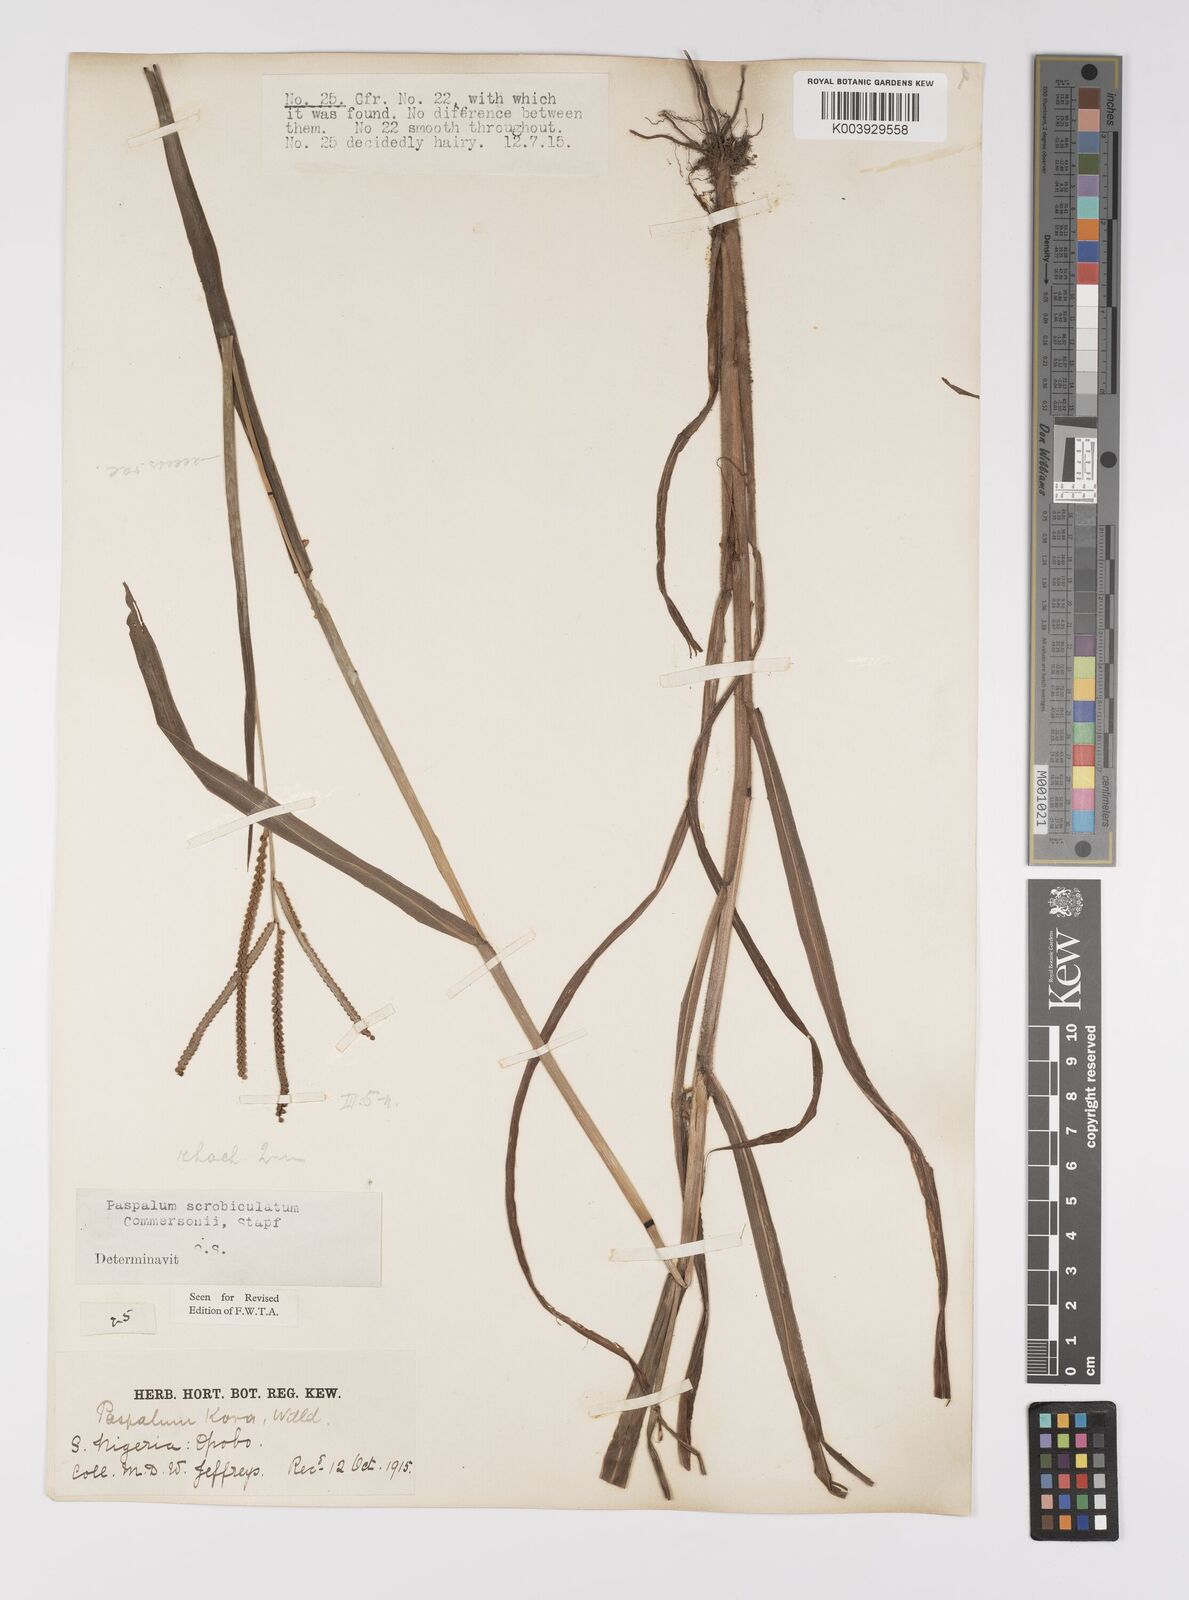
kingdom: Plantae
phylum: Tracheophyta
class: Liliopsida
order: Poales
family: Poaceae
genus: Paspalum
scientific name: Paspalum scrobiculatum
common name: Kodo millet
